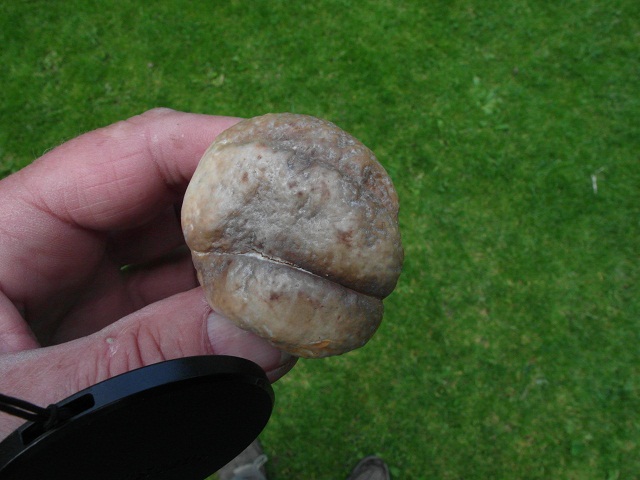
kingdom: Fungi
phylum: Basidiomycota
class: Agaricomycetes
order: Boletales
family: Boletaceae
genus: Boletus
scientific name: Boletus reticulatus
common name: sommer-rørhat
